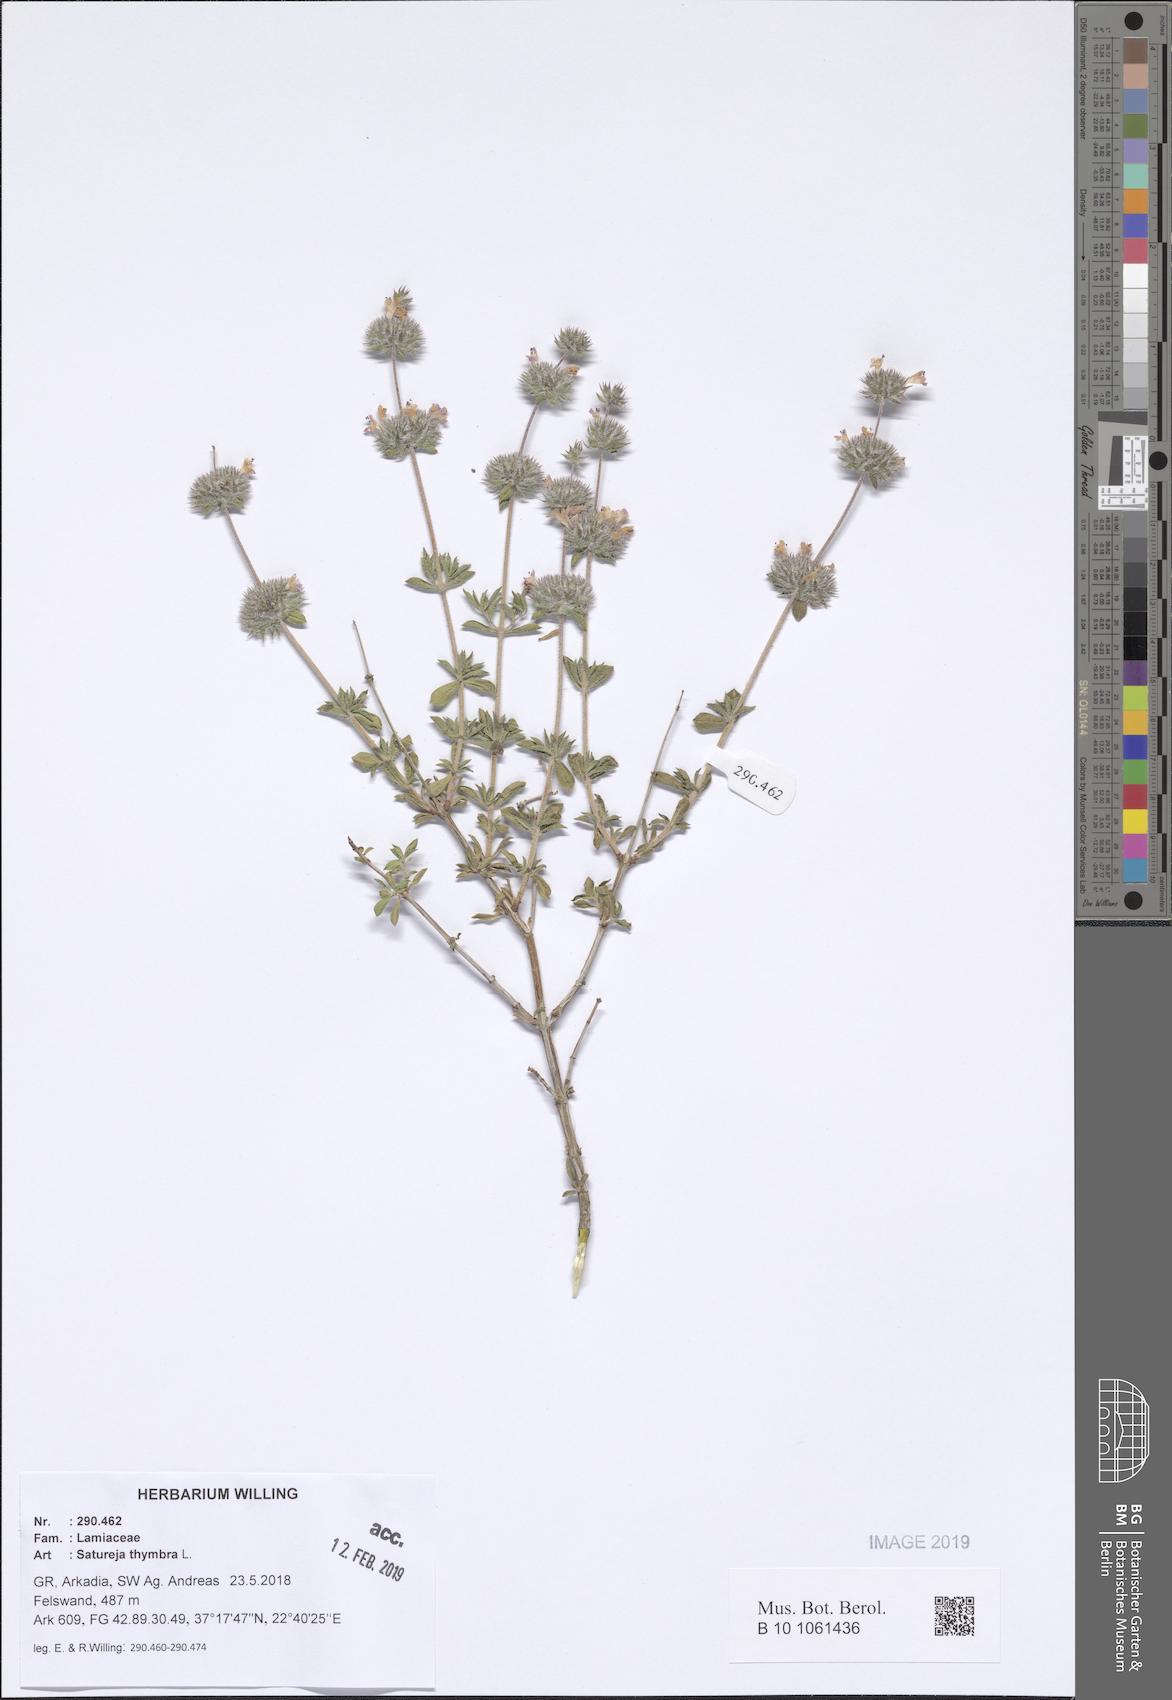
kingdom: Plantae
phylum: Tracheophyta
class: Magnoliopsida
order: Lamiales
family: Lamiaceae
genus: Satureja
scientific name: Satureja thymbra
